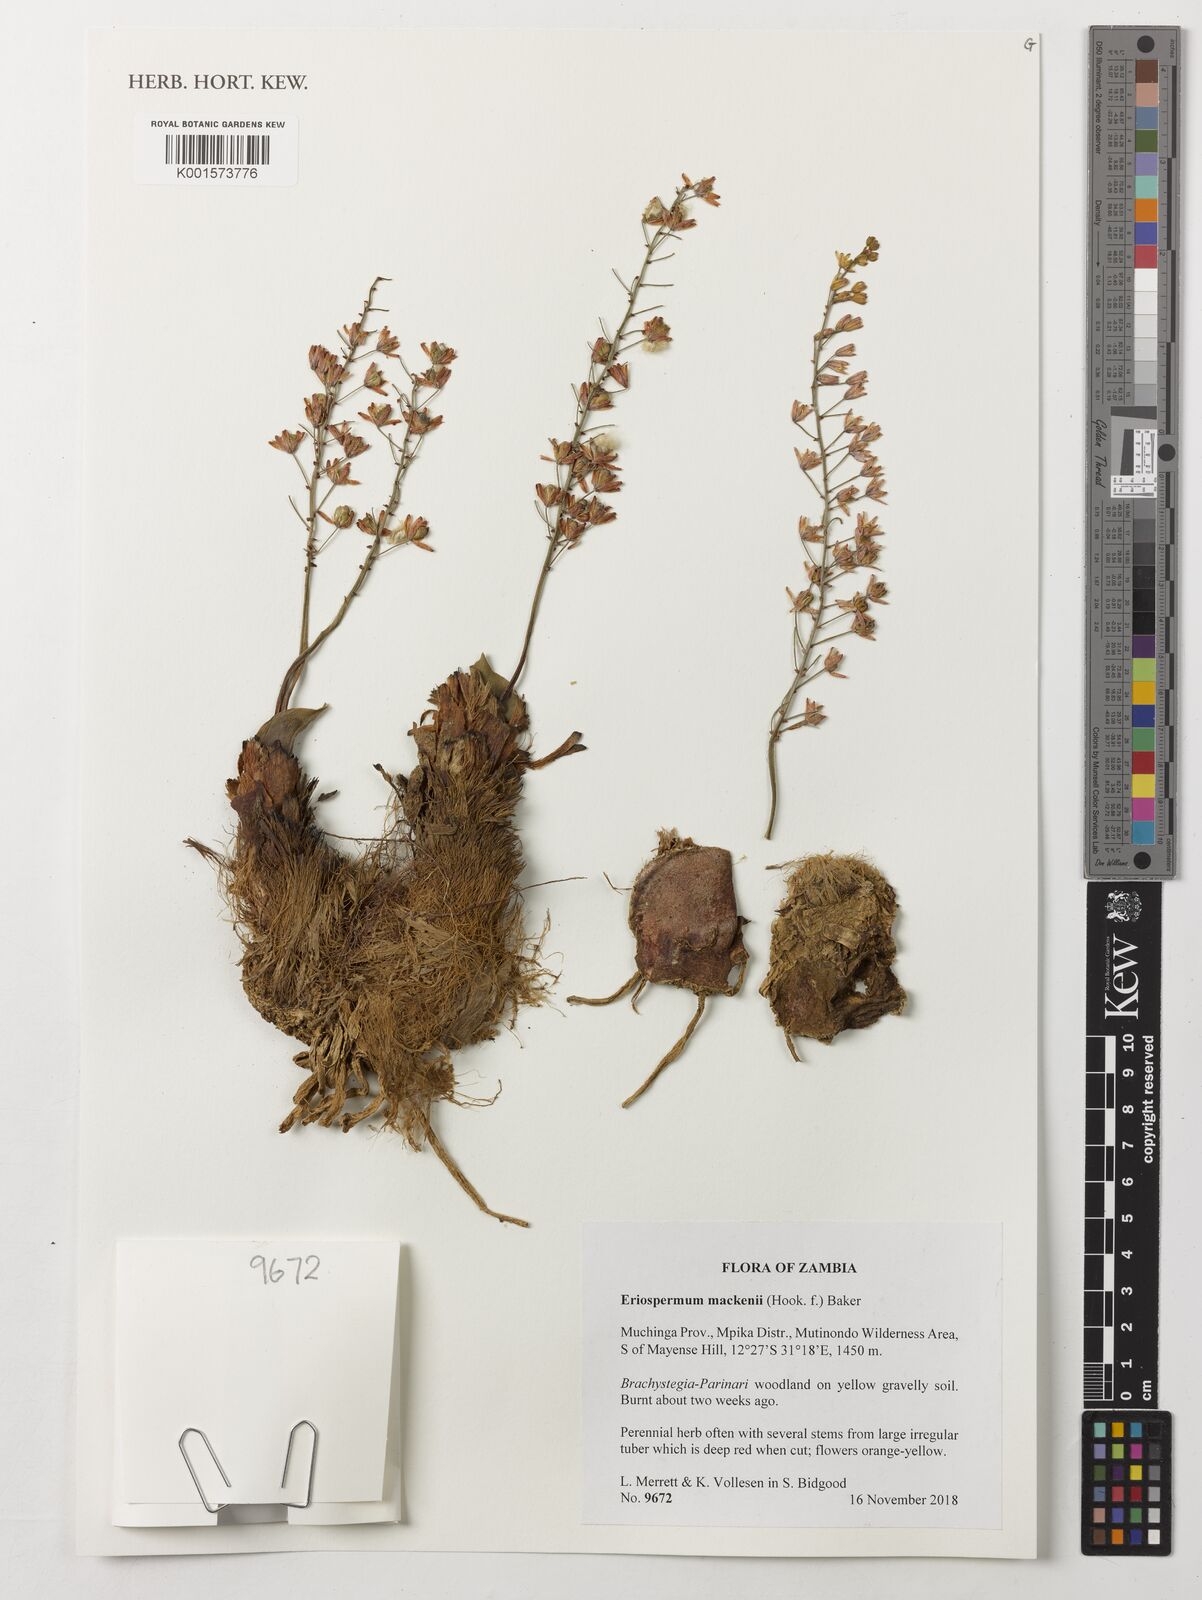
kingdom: Plantae
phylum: Tracheophyta
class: Liliopsida
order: Asparagales
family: Asparagaceae
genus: Eriospermum
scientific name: Eriospermum mackenii
